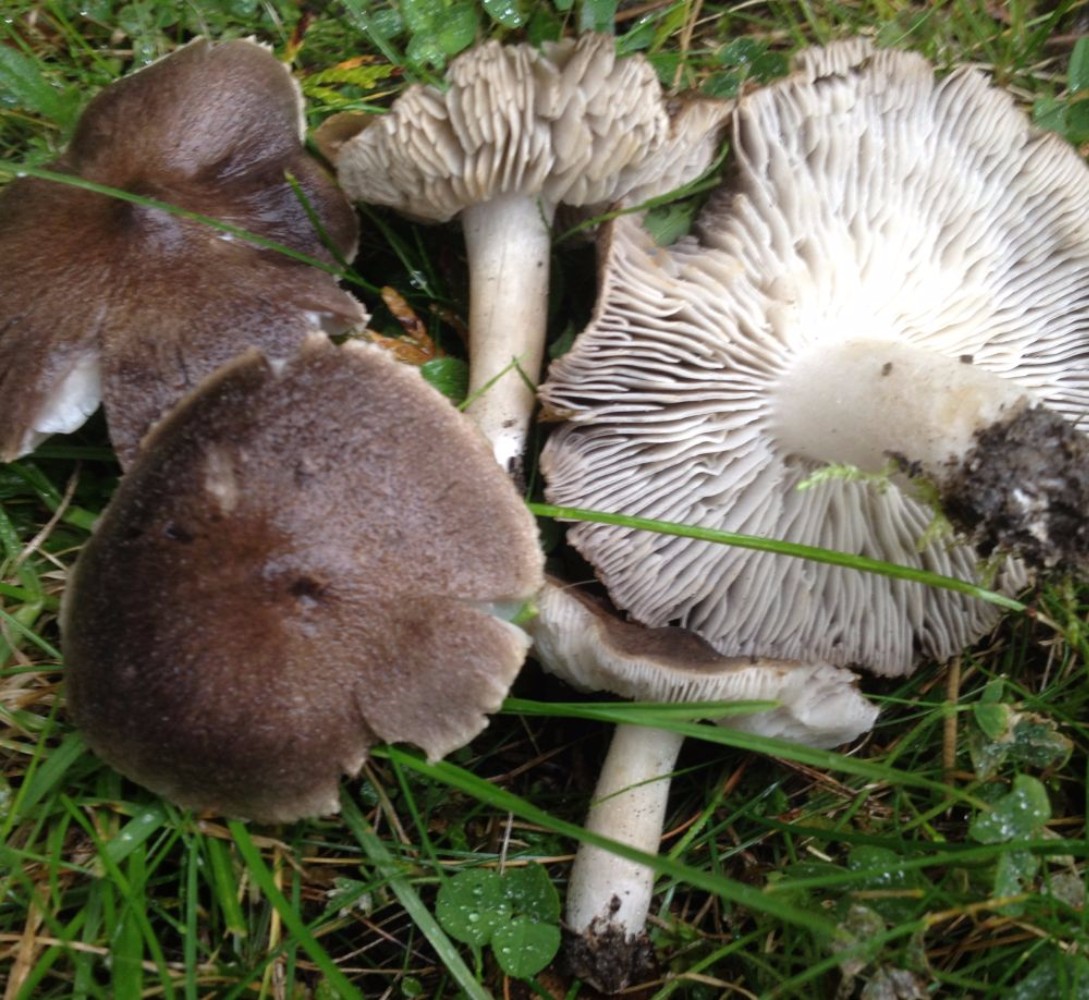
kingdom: Fungi
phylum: Basidiomycota
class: Agaricomycetes
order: Agaricales
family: Tricholomataceae
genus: Tricholoma
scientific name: Tricholoma terreum
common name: jordfarvet ridderhat
